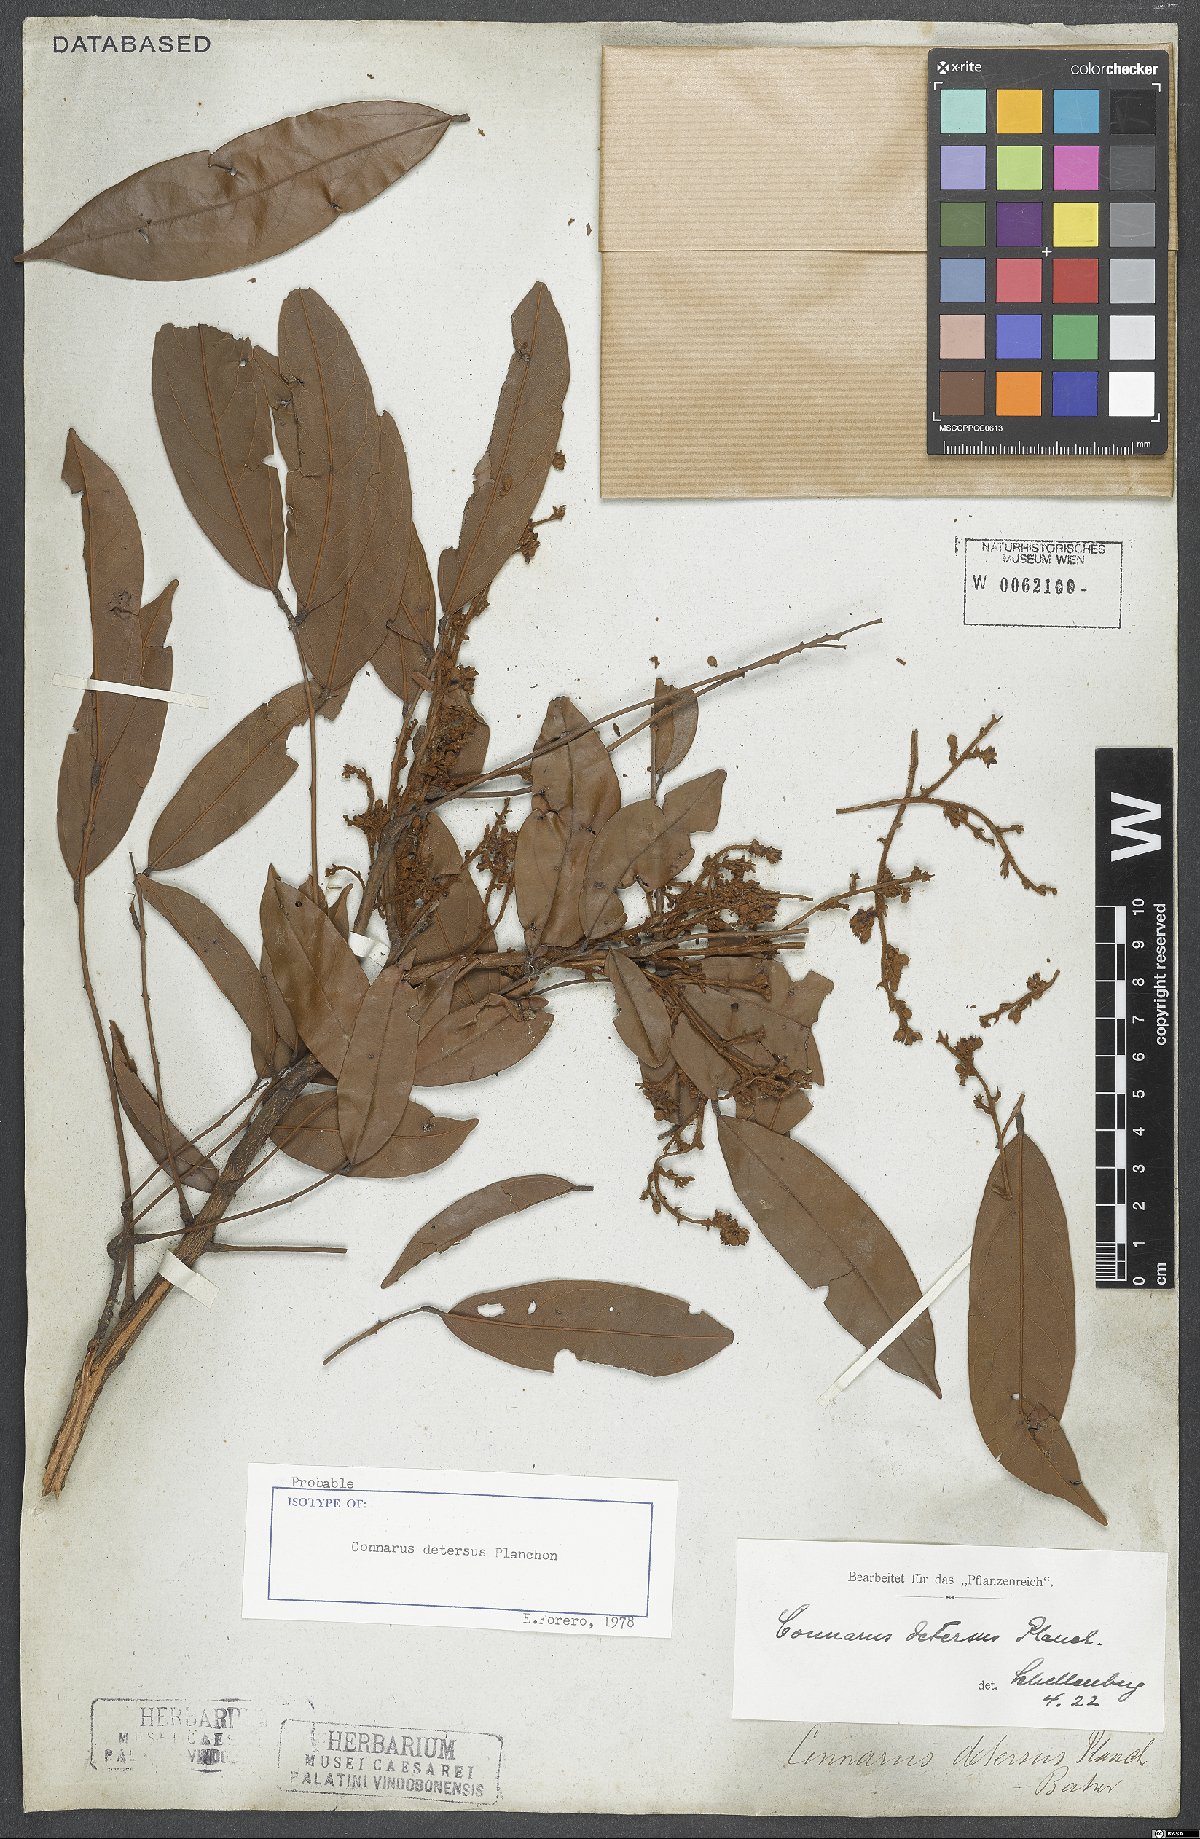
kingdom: Plantae
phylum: Tracheophyta
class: Magnoliopsida
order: Oxalidales
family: Connaraceae
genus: Connarus
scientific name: Connarus detersus
